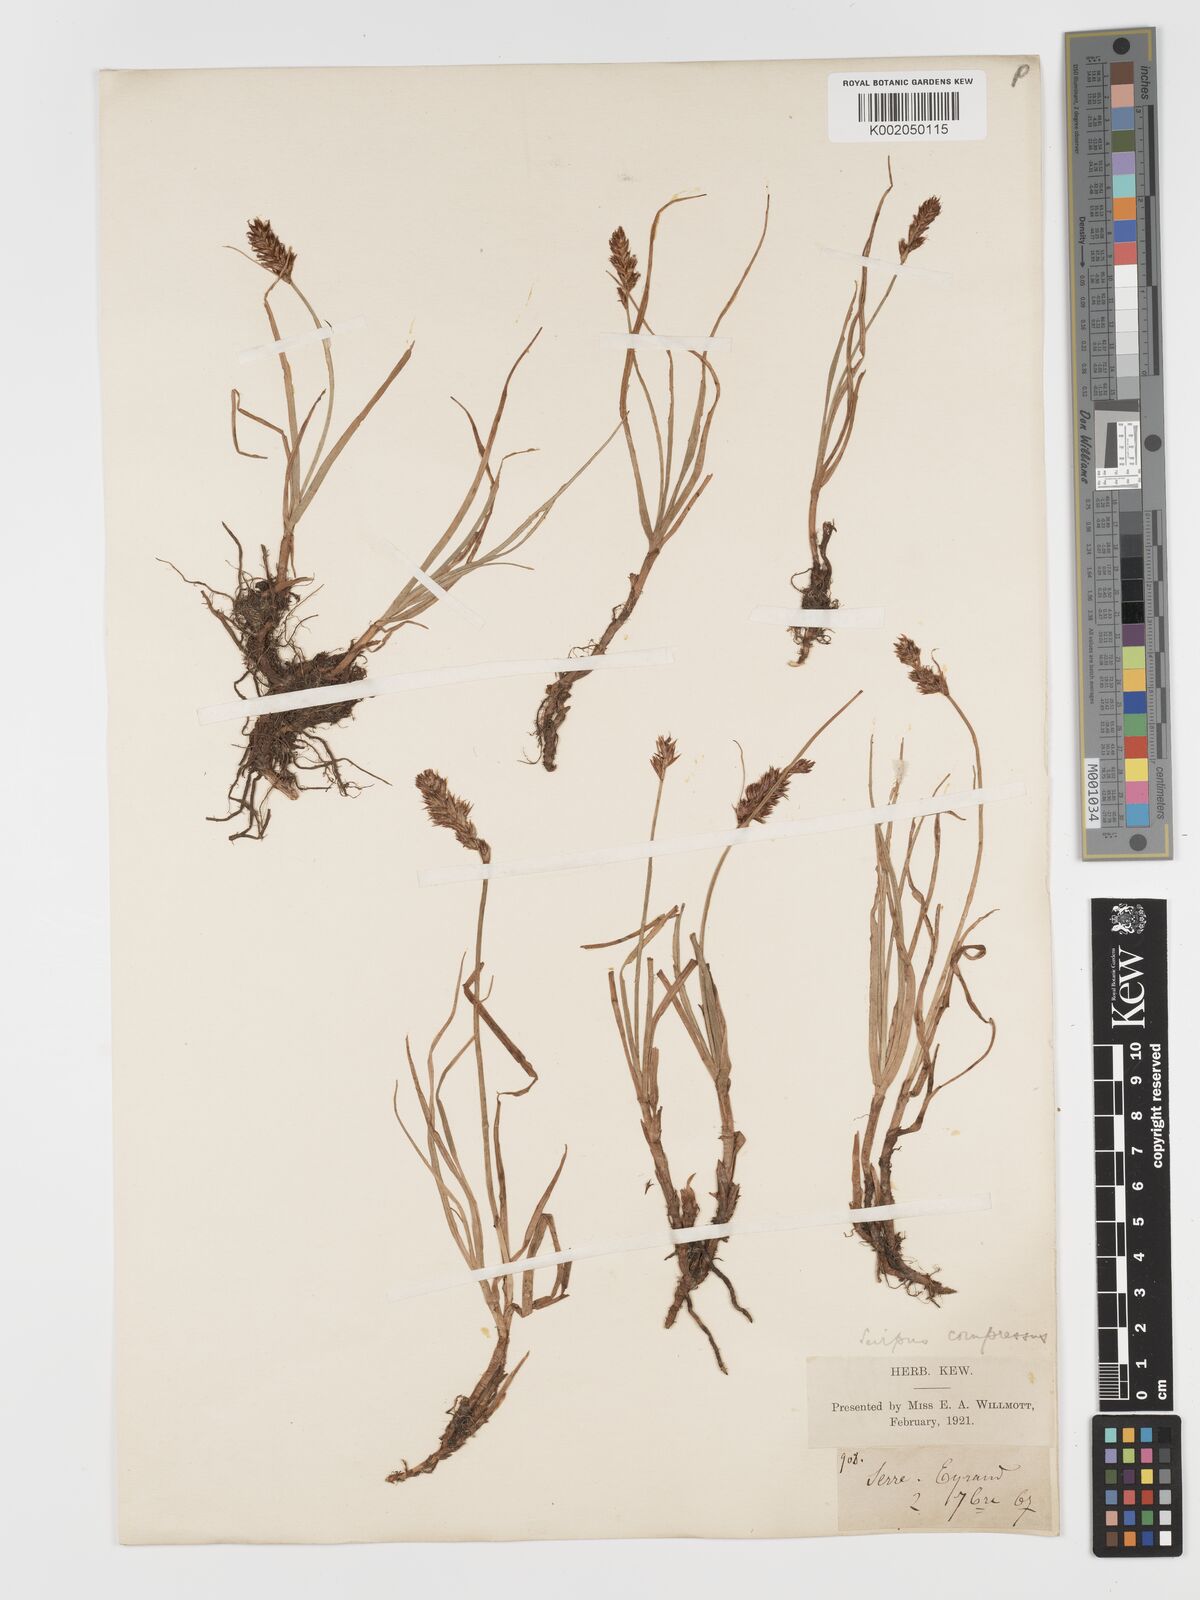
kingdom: Plantae
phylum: Tracheophyta
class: Liliopsida
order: Poales
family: Cyperaceae
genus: Blysmus
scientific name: Blysmus compressus
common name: Flat-sedge
